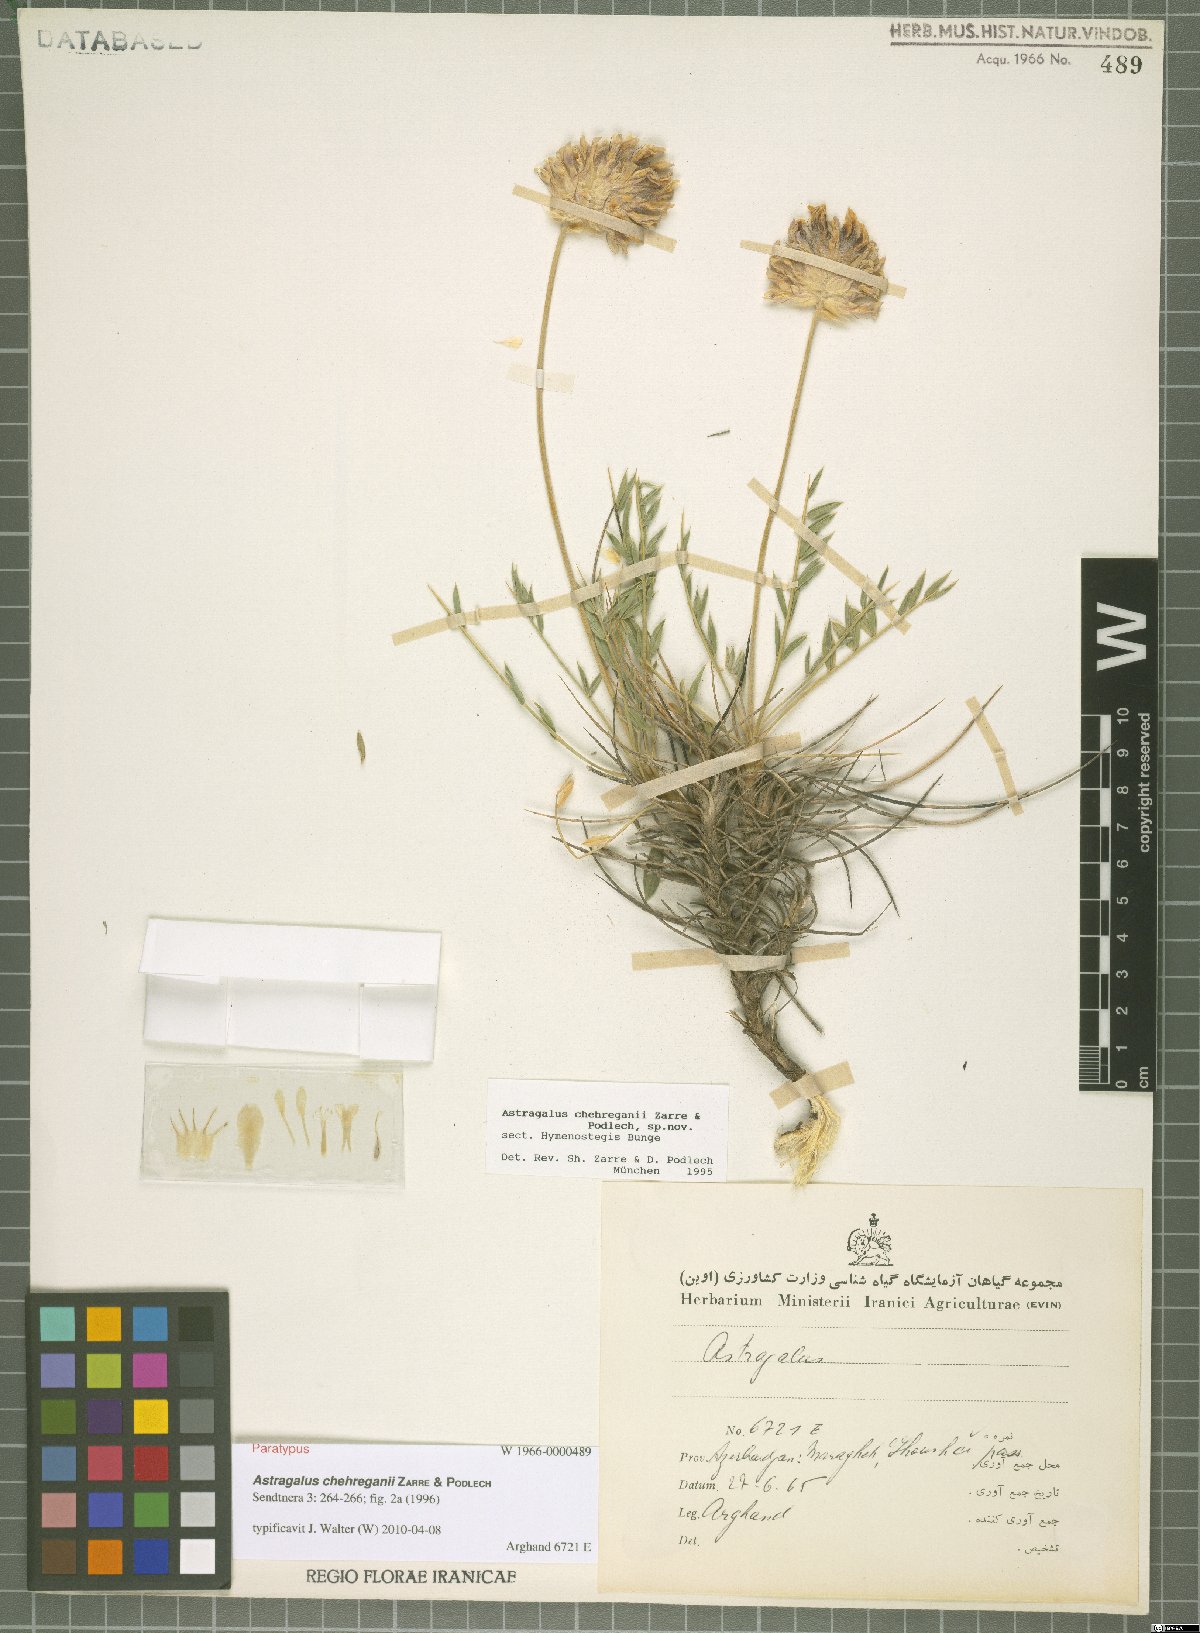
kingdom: Plantae
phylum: Tracheophyta
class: Magnoliopsida
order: Fabales
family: Fabaceae
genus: Astragalus
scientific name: Astragalus chehreganii
